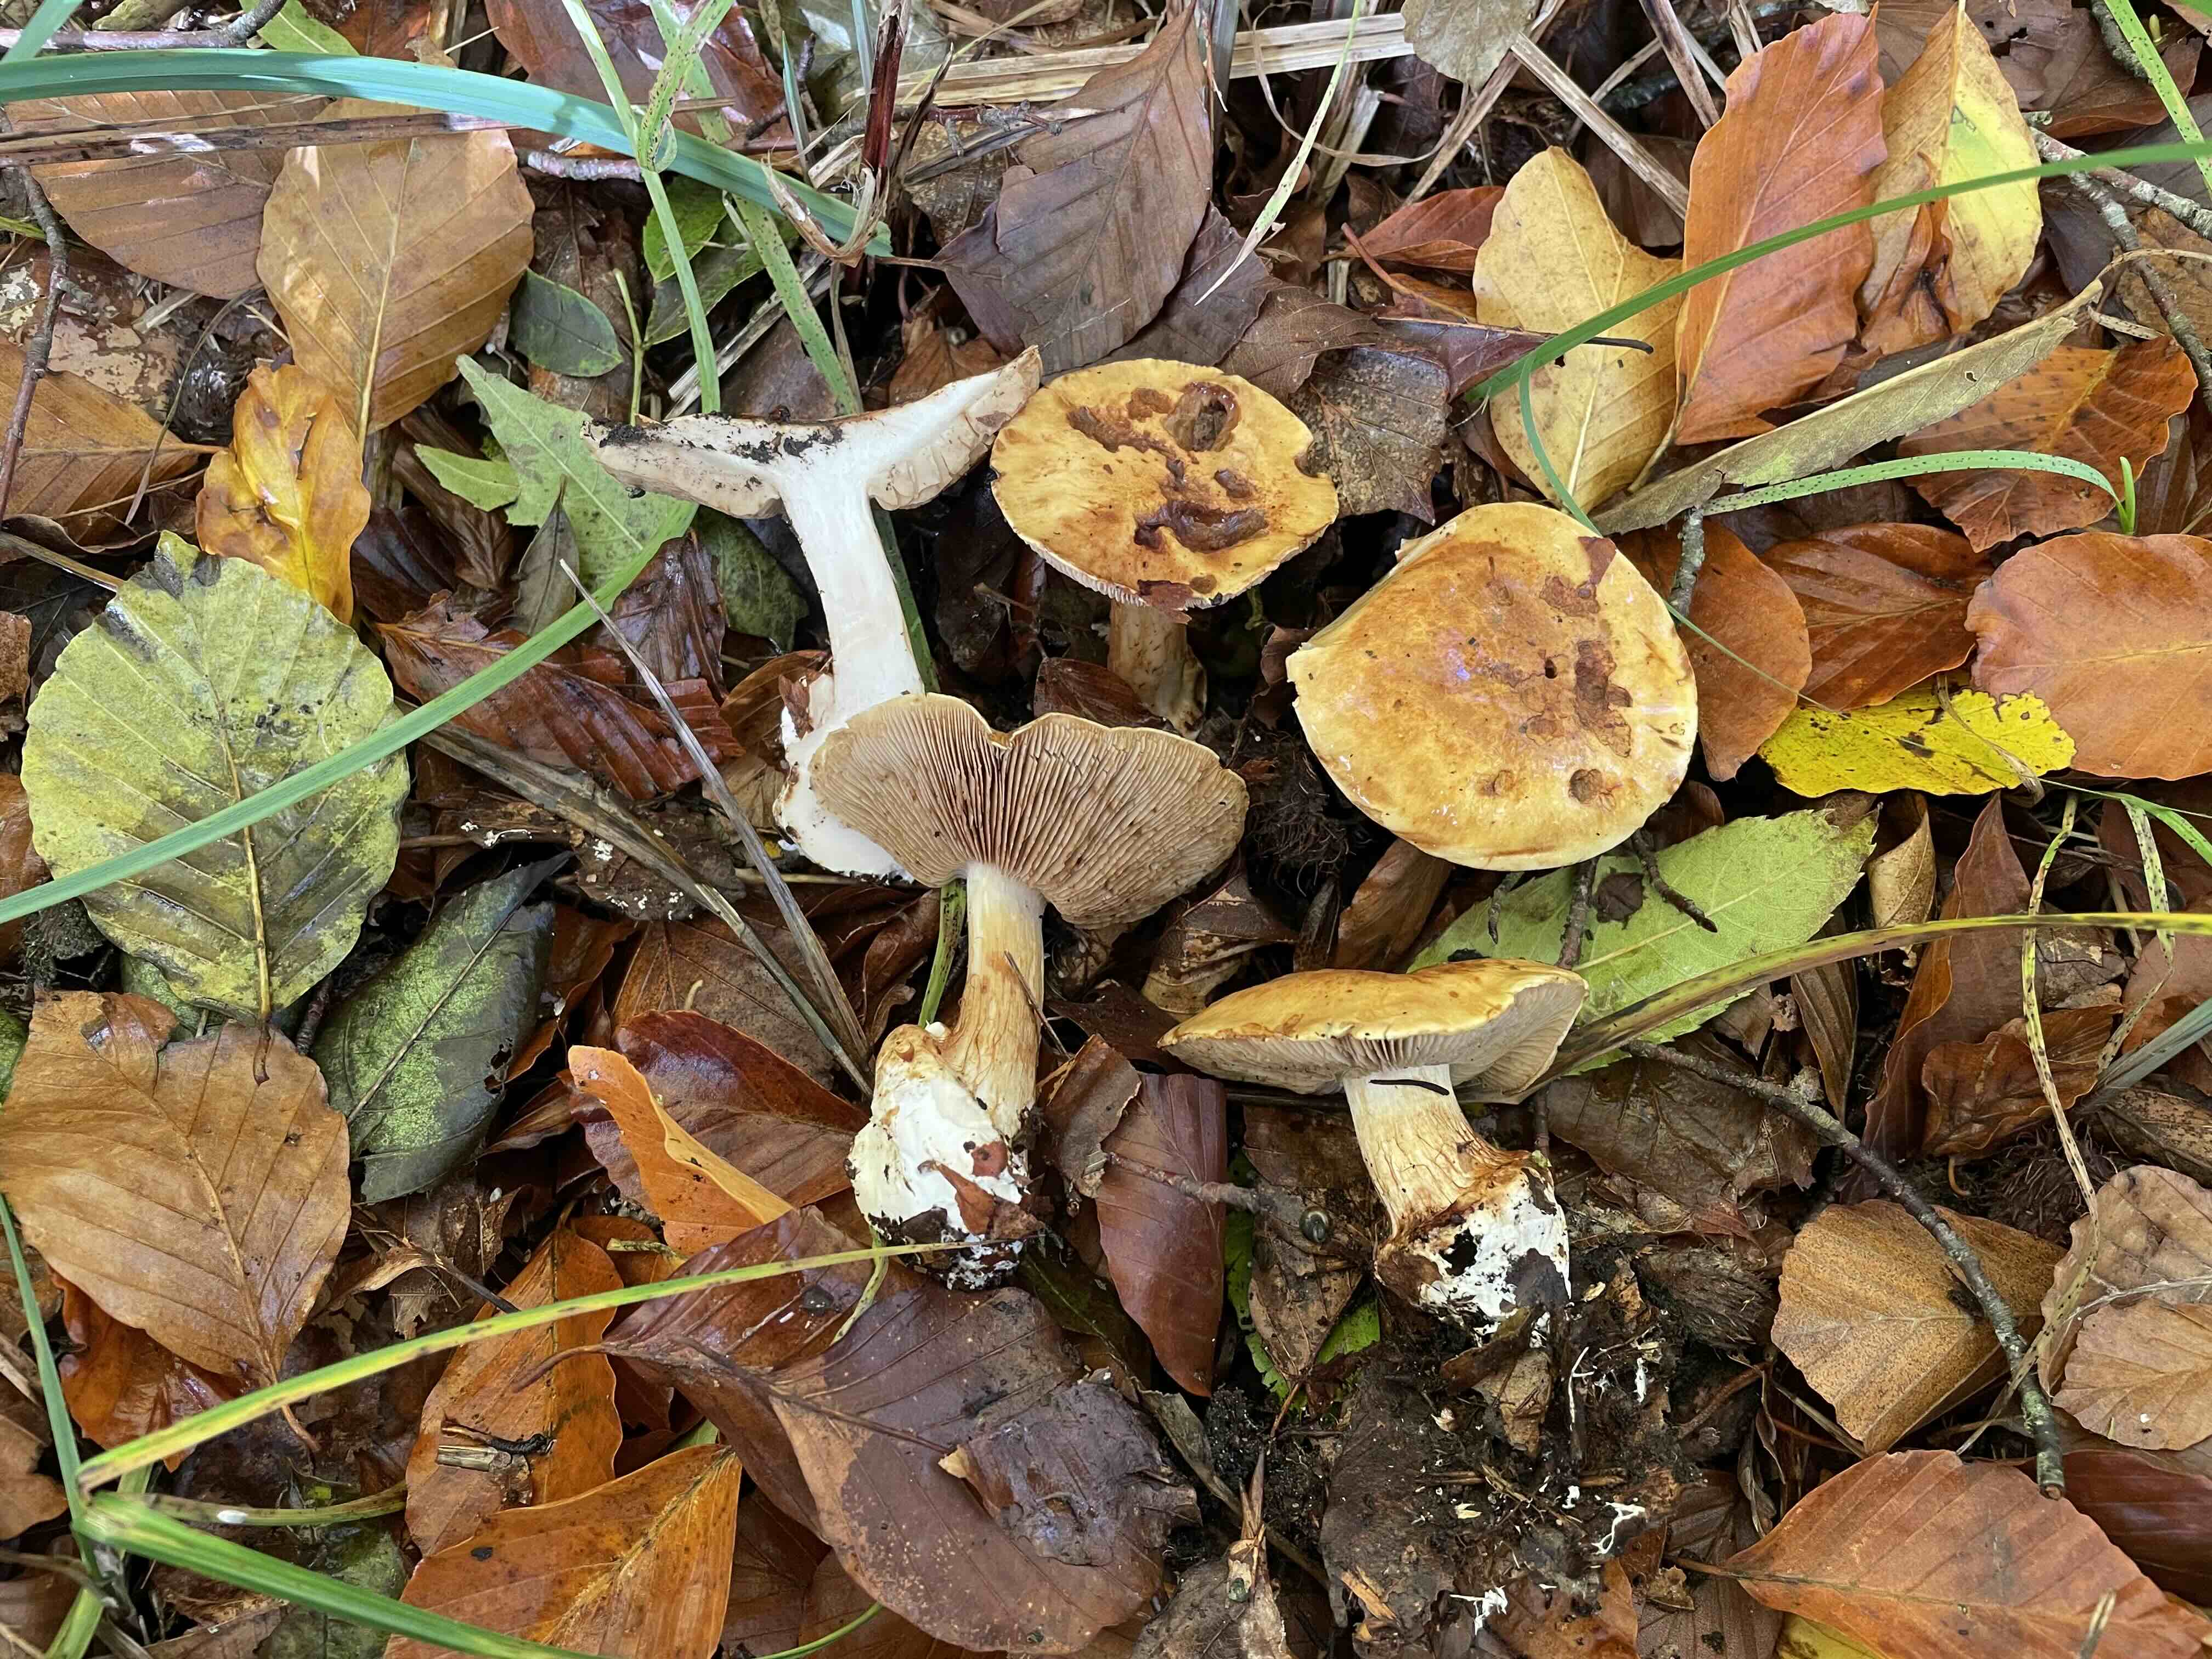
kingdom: Fungi
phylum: Basidiomycota
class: Agaricomycetes
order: Agaricales
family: Cortinariaceae
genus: Calonarius
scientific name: Calonarius osmophorus
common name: duft-slørhat
